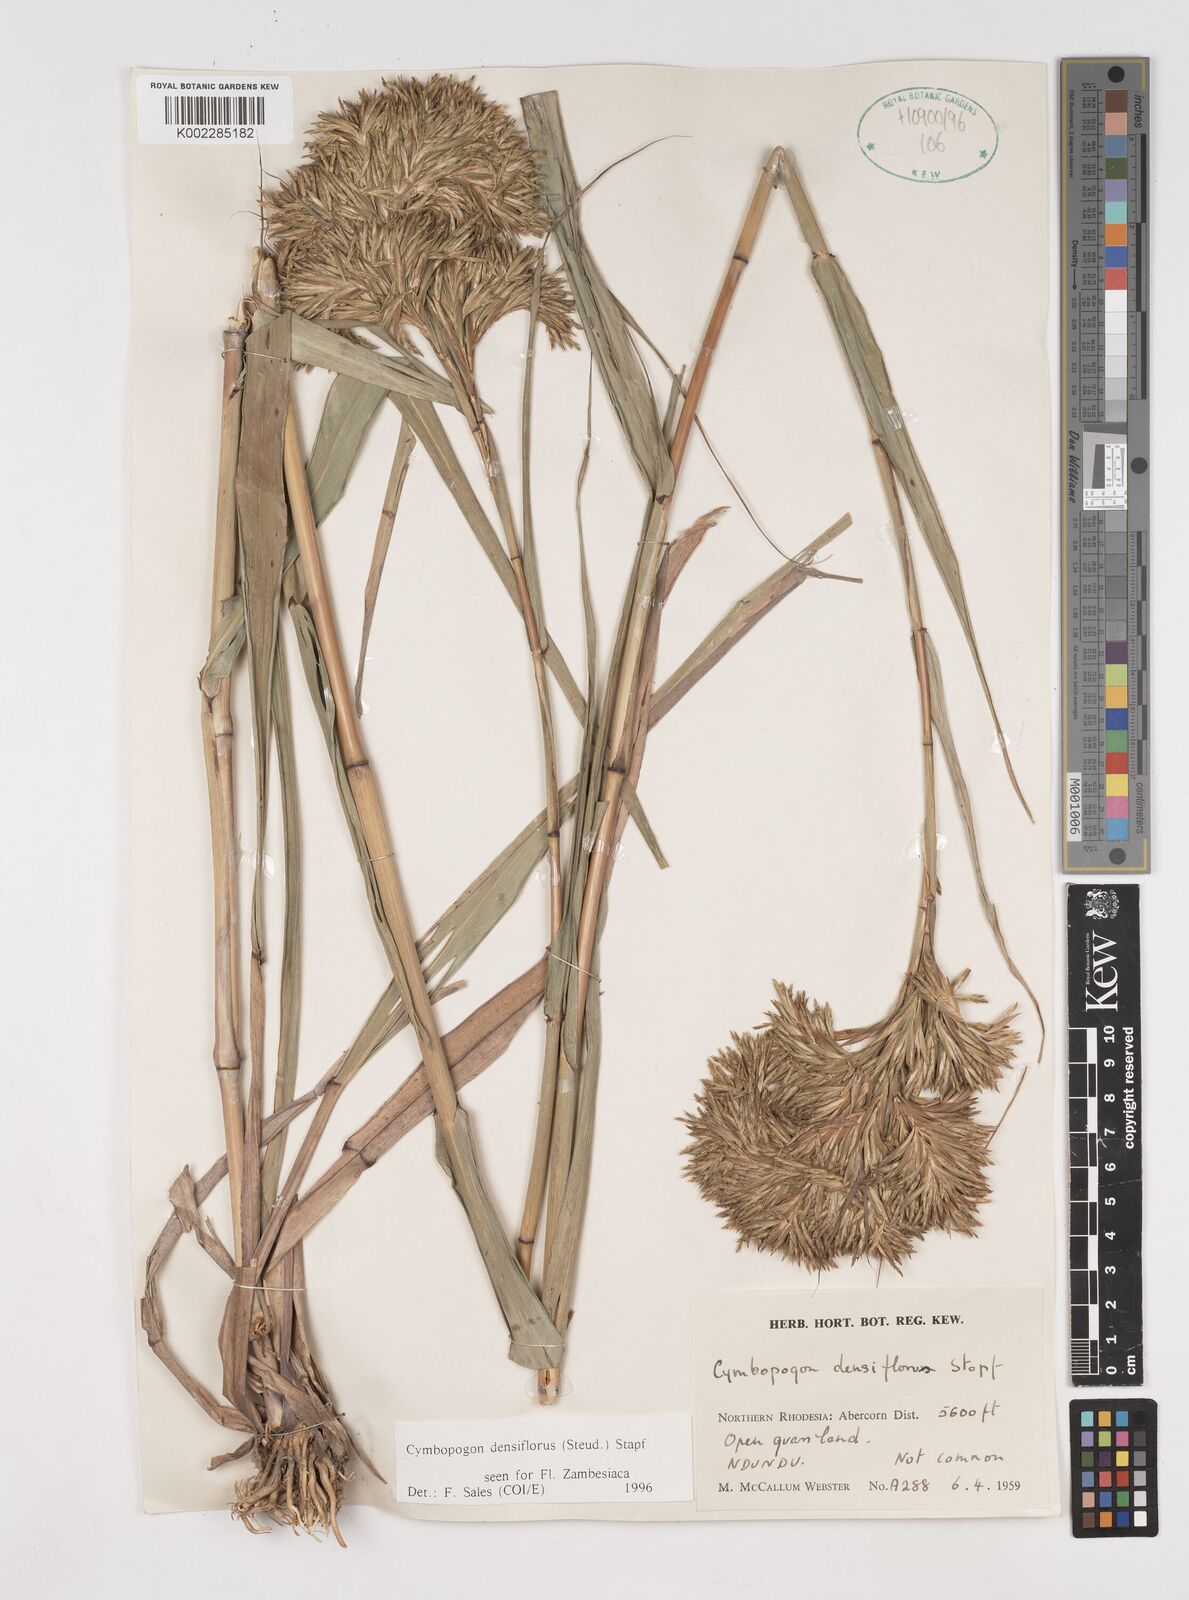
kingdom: Plantae
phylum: Tracheophyta
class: Liliopsida
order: Poales
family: Poaceae
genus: Cymbopogon
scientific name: Cymbopogon densiflorus
